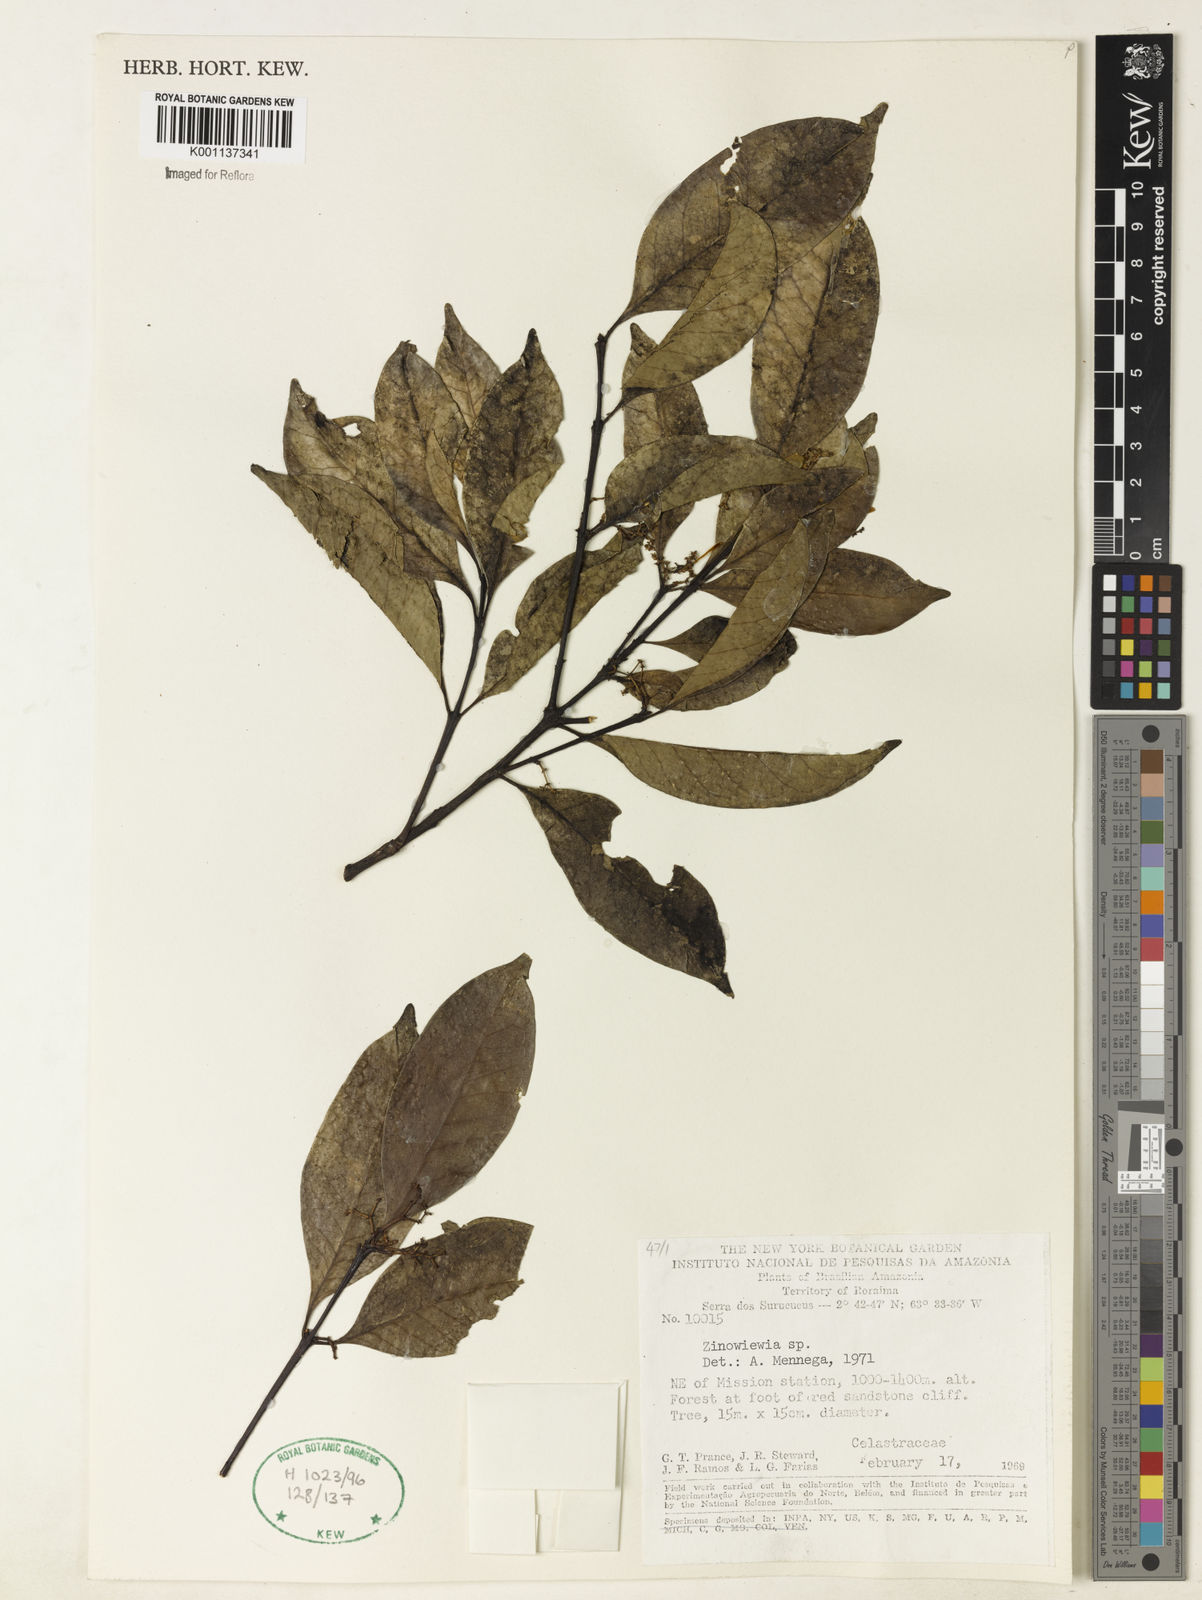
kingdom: Plantae
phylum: Tracheophyta
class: Magnoliopsida
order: Celastrales
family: Celastraceae
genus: Zinowiewia
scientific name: Zinowiewia
